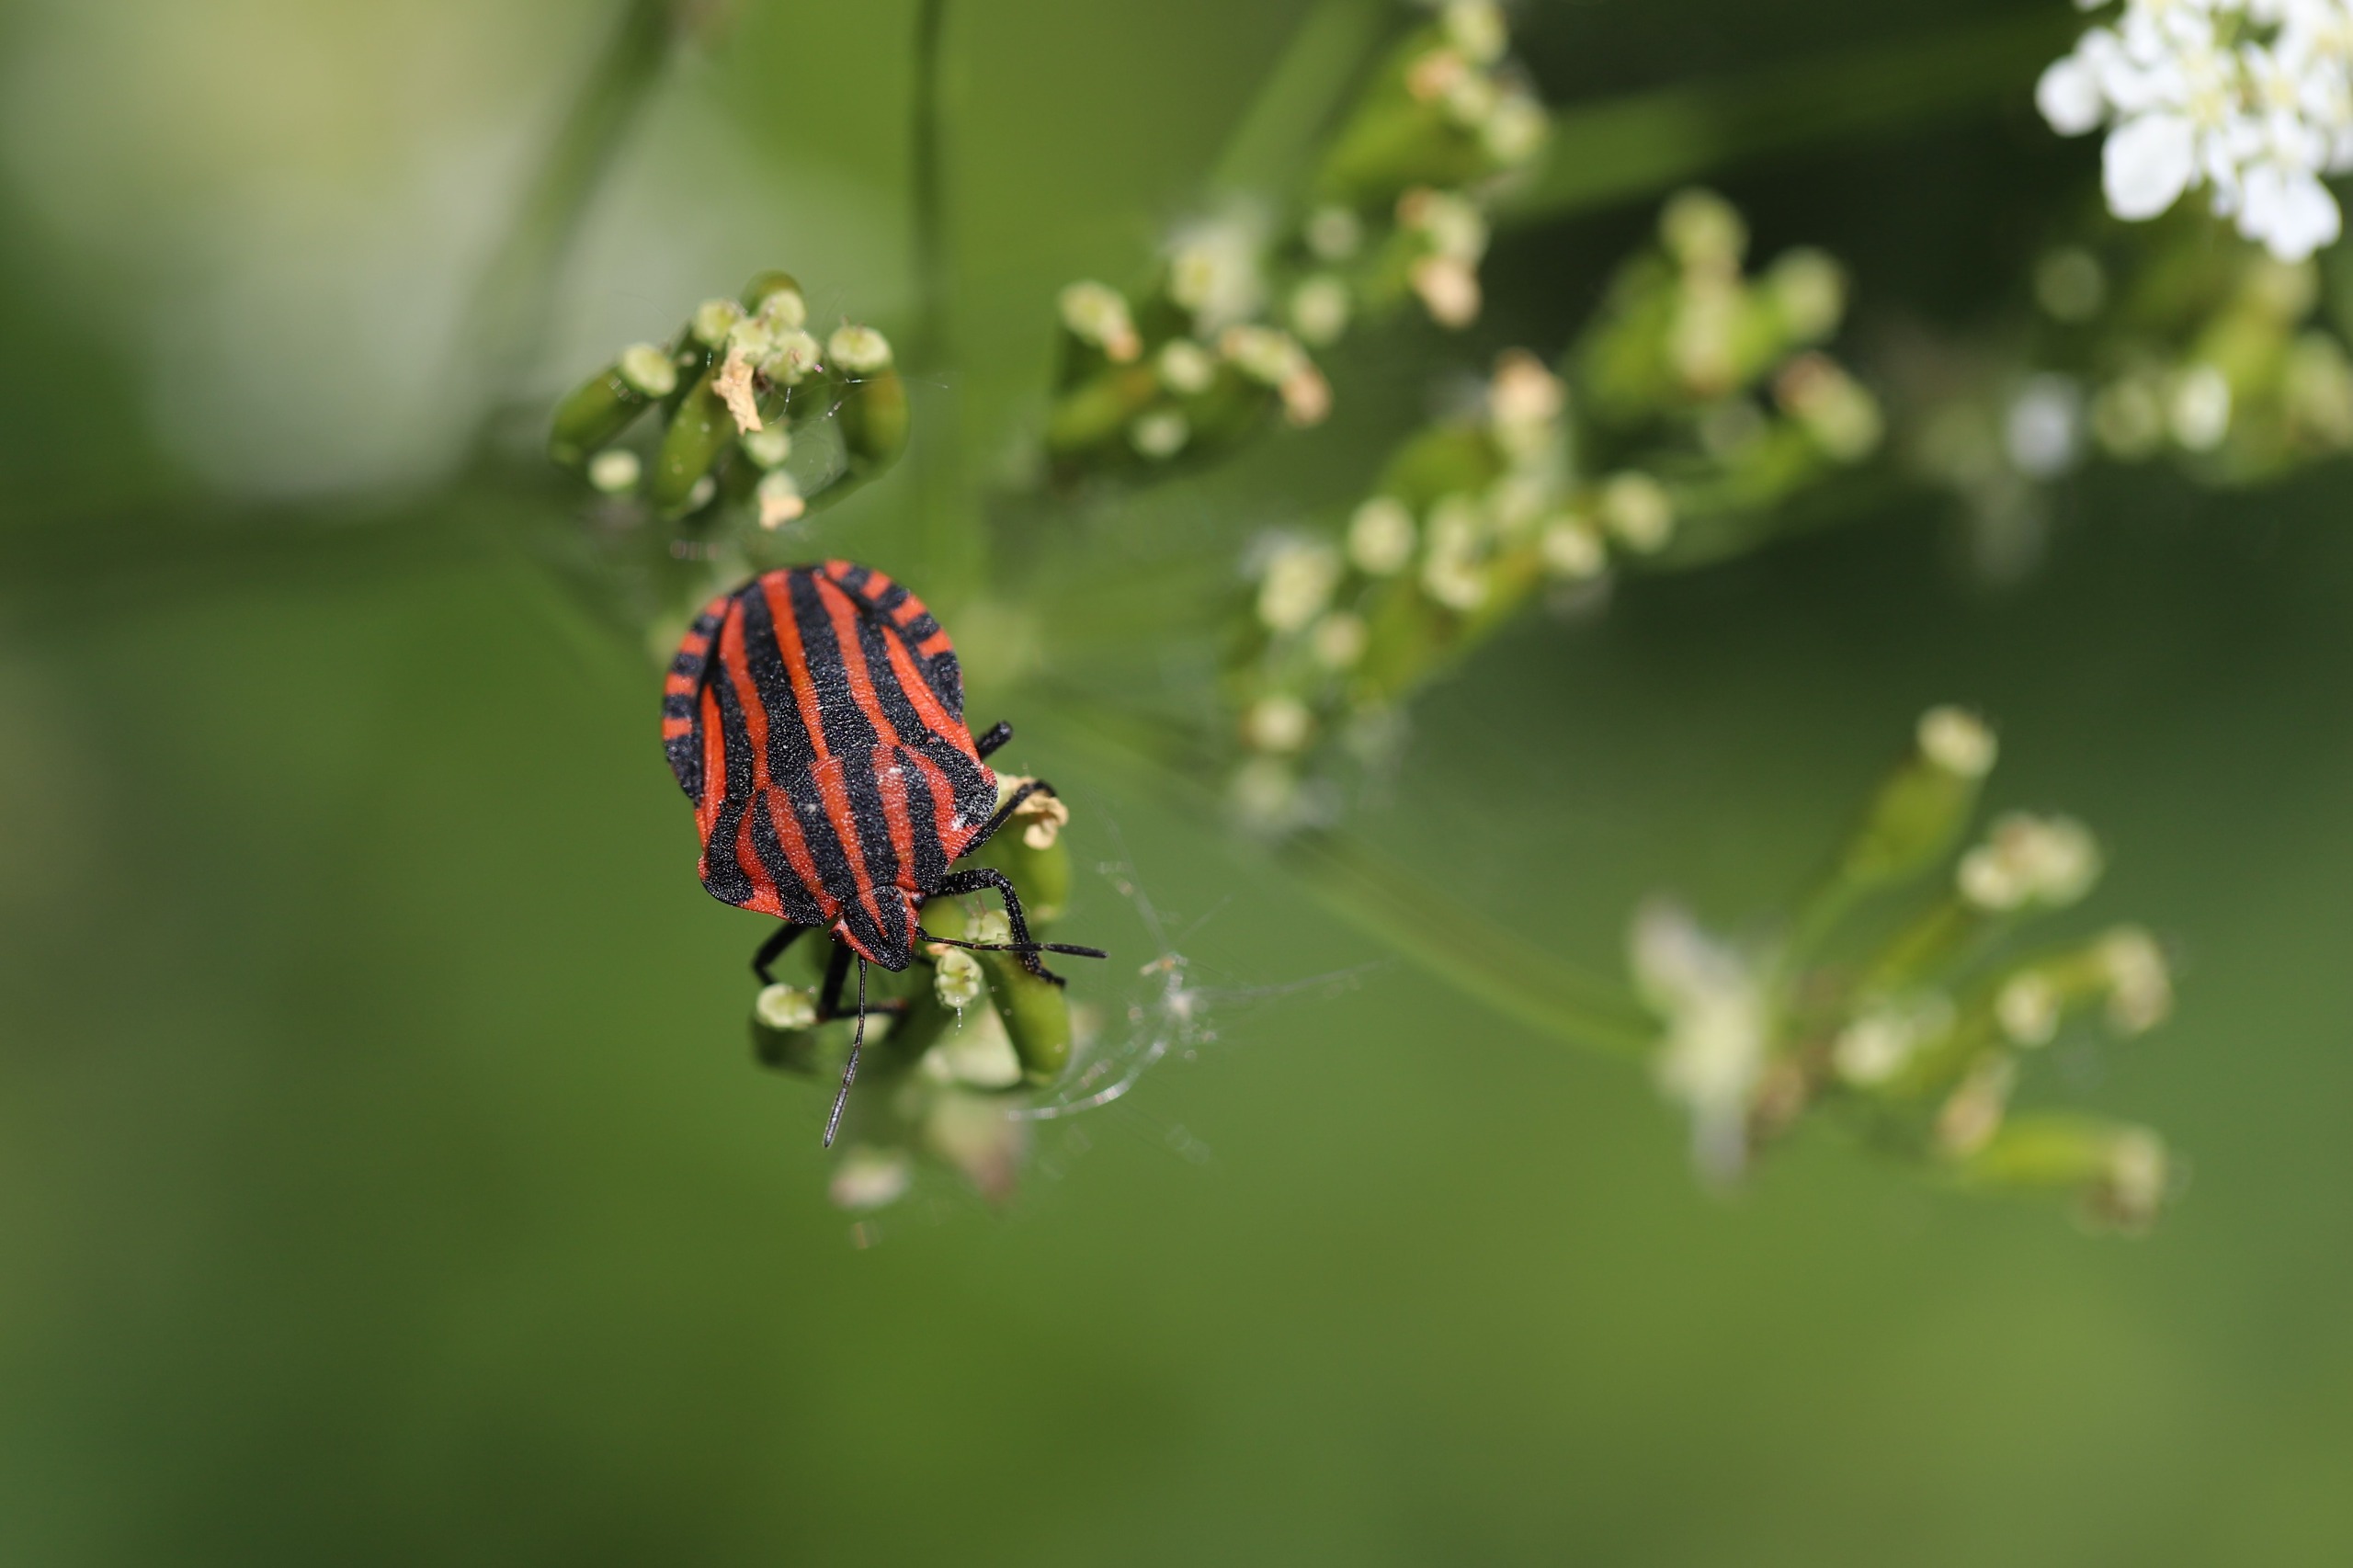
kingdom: Animalia
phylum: Arthropoda
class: Insecta
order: Hemiptera
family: Pentatomidae
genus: Graphosoma
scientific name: Graphosoma italicum
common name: Stribetæge
